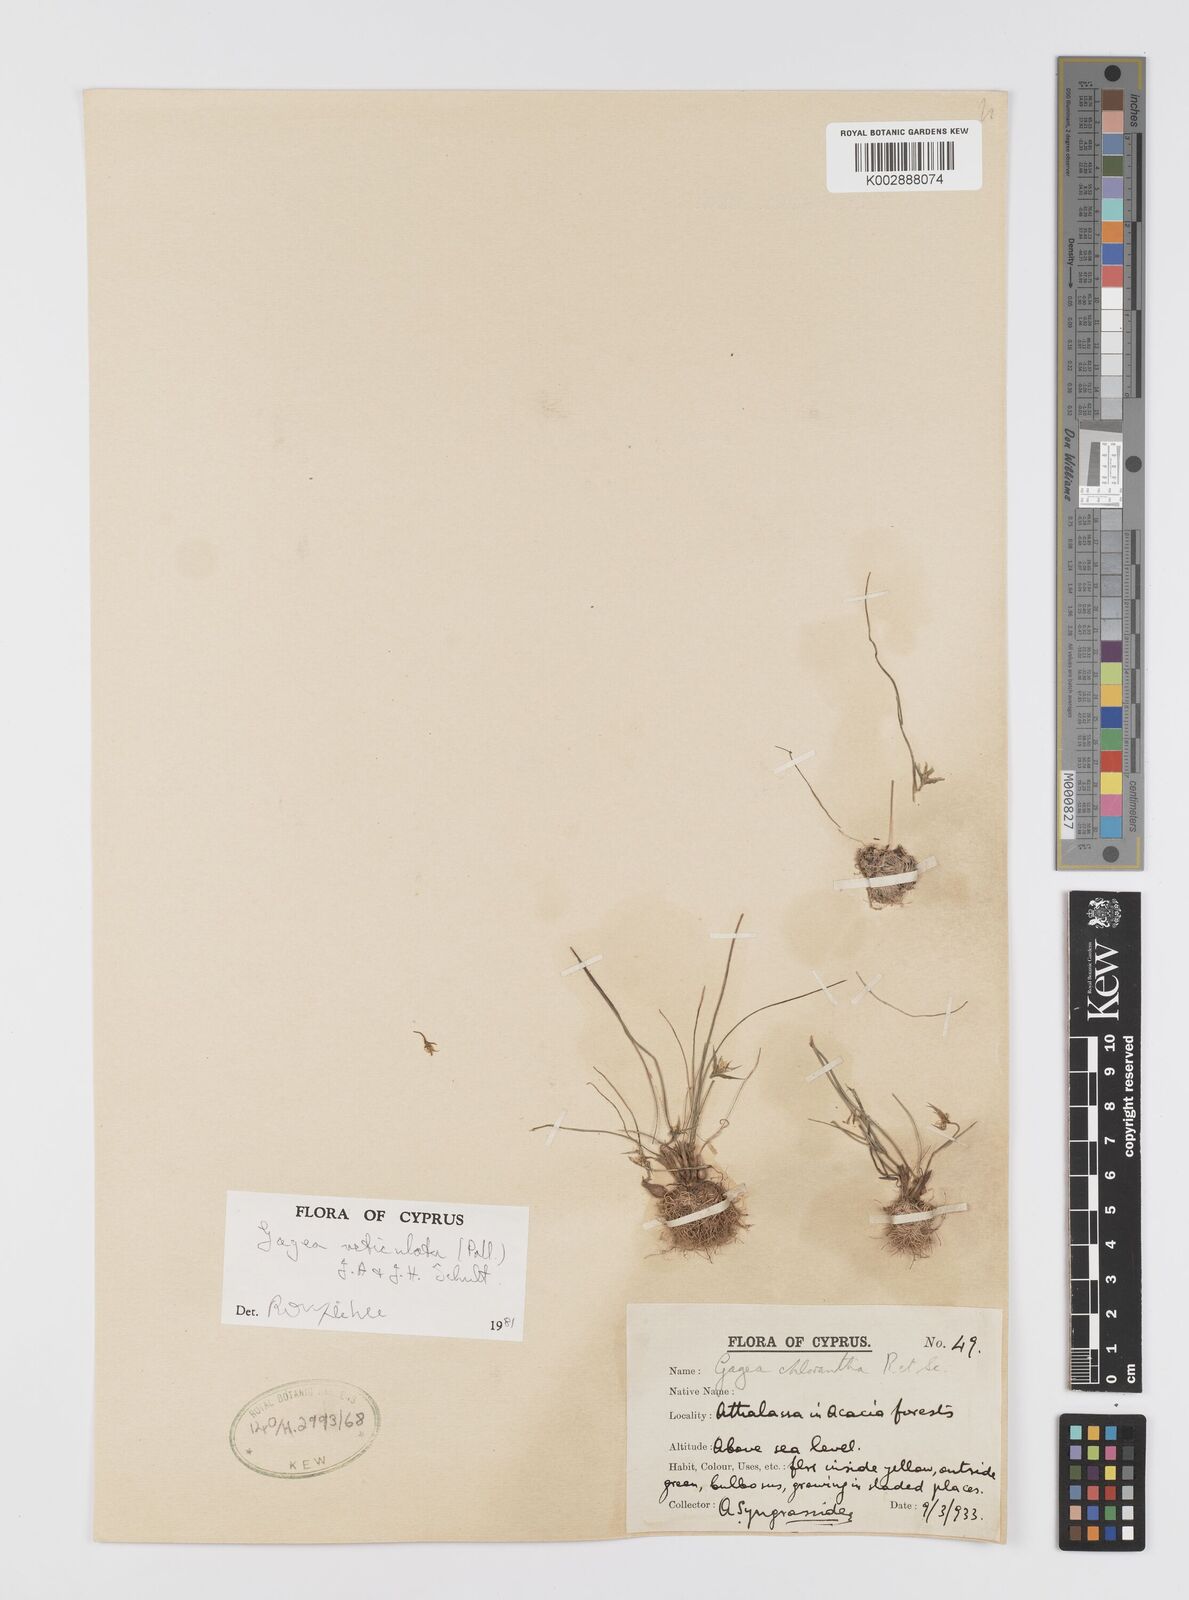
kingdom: Plantae
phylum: Tracheophyta
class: Liliopsida
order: Liliales
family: Liliaceae
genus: Gagea
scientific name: Gagea reticulata
